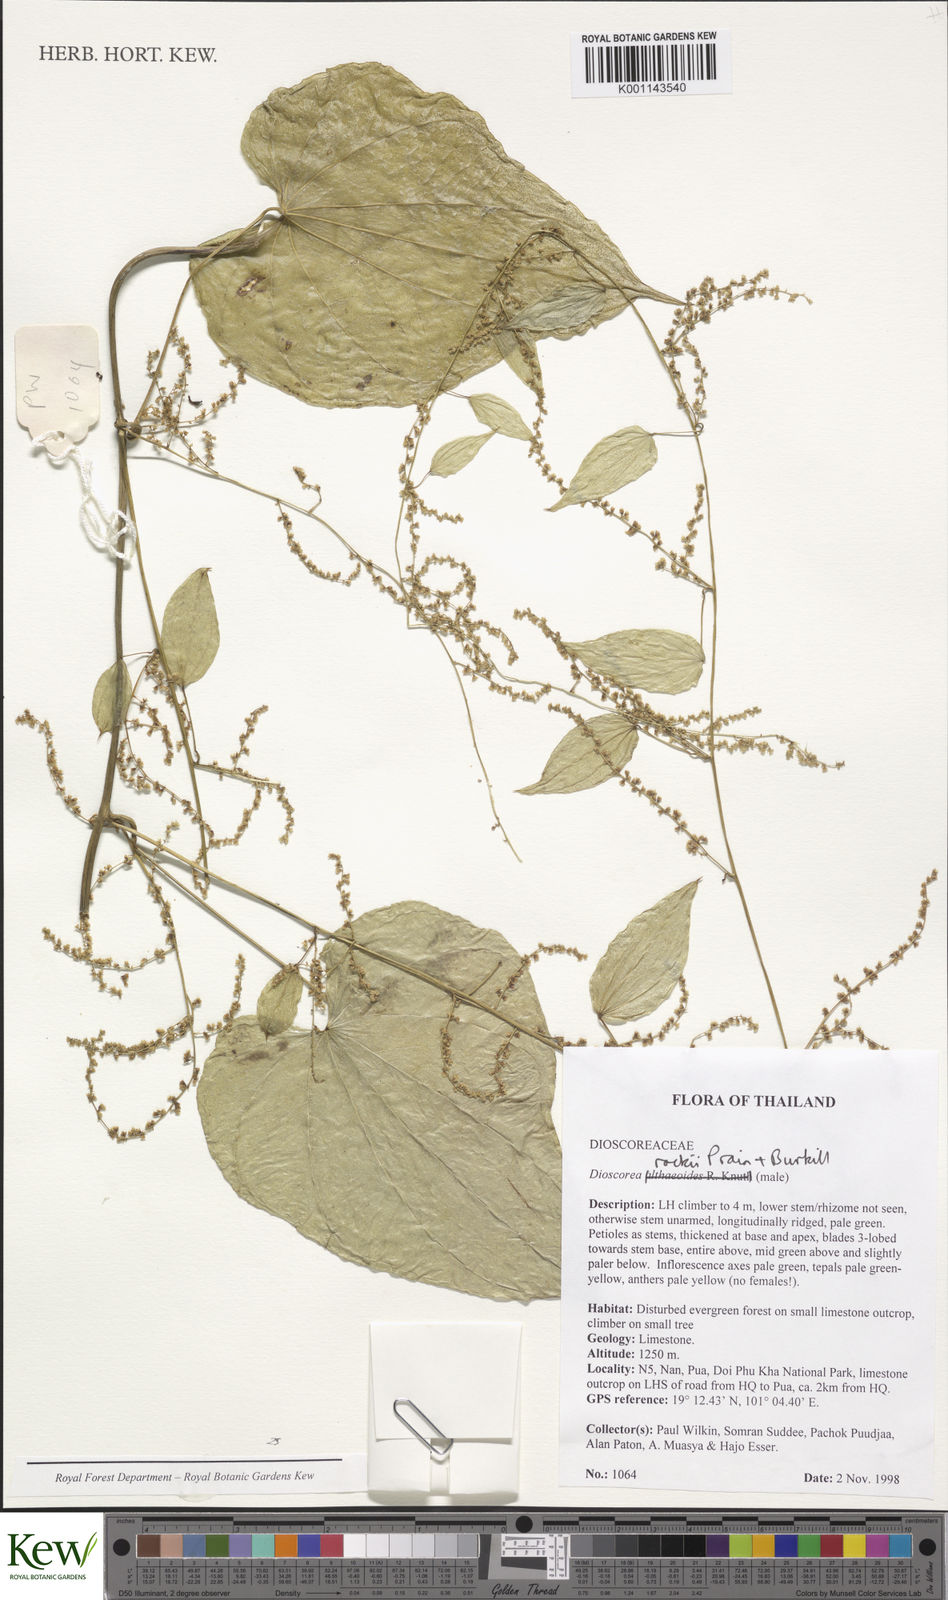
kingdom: Plantae
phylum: Tracheophyta
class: Liliopsida
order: Dioscoreales
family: Dioscoreaceae
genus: Dioscorea
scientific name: Dioscorea rockii
